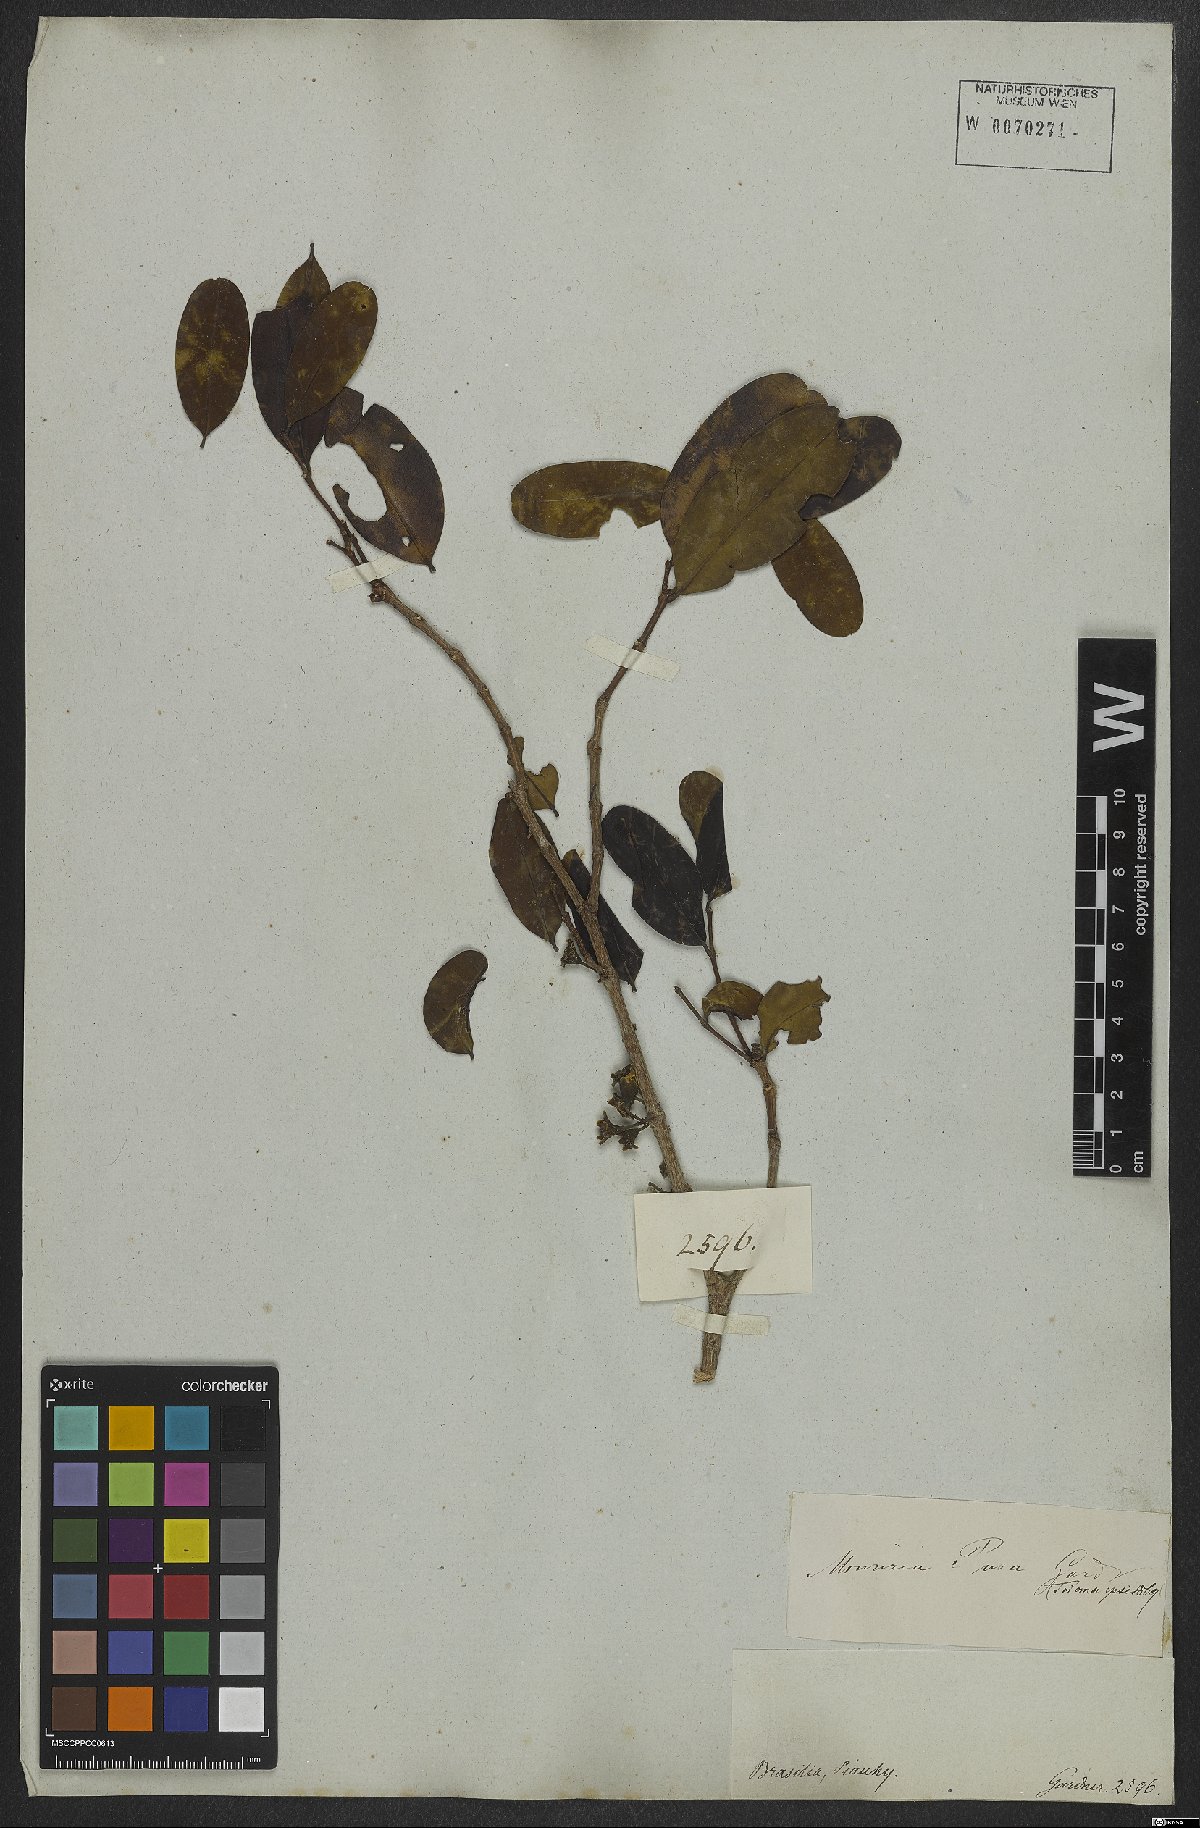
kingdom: Plantae
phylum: Tracheophyta
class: Magnoliopsida
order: Myrtales
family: Melastomataceae
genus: Mouriri
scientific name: Mouriri pusa
